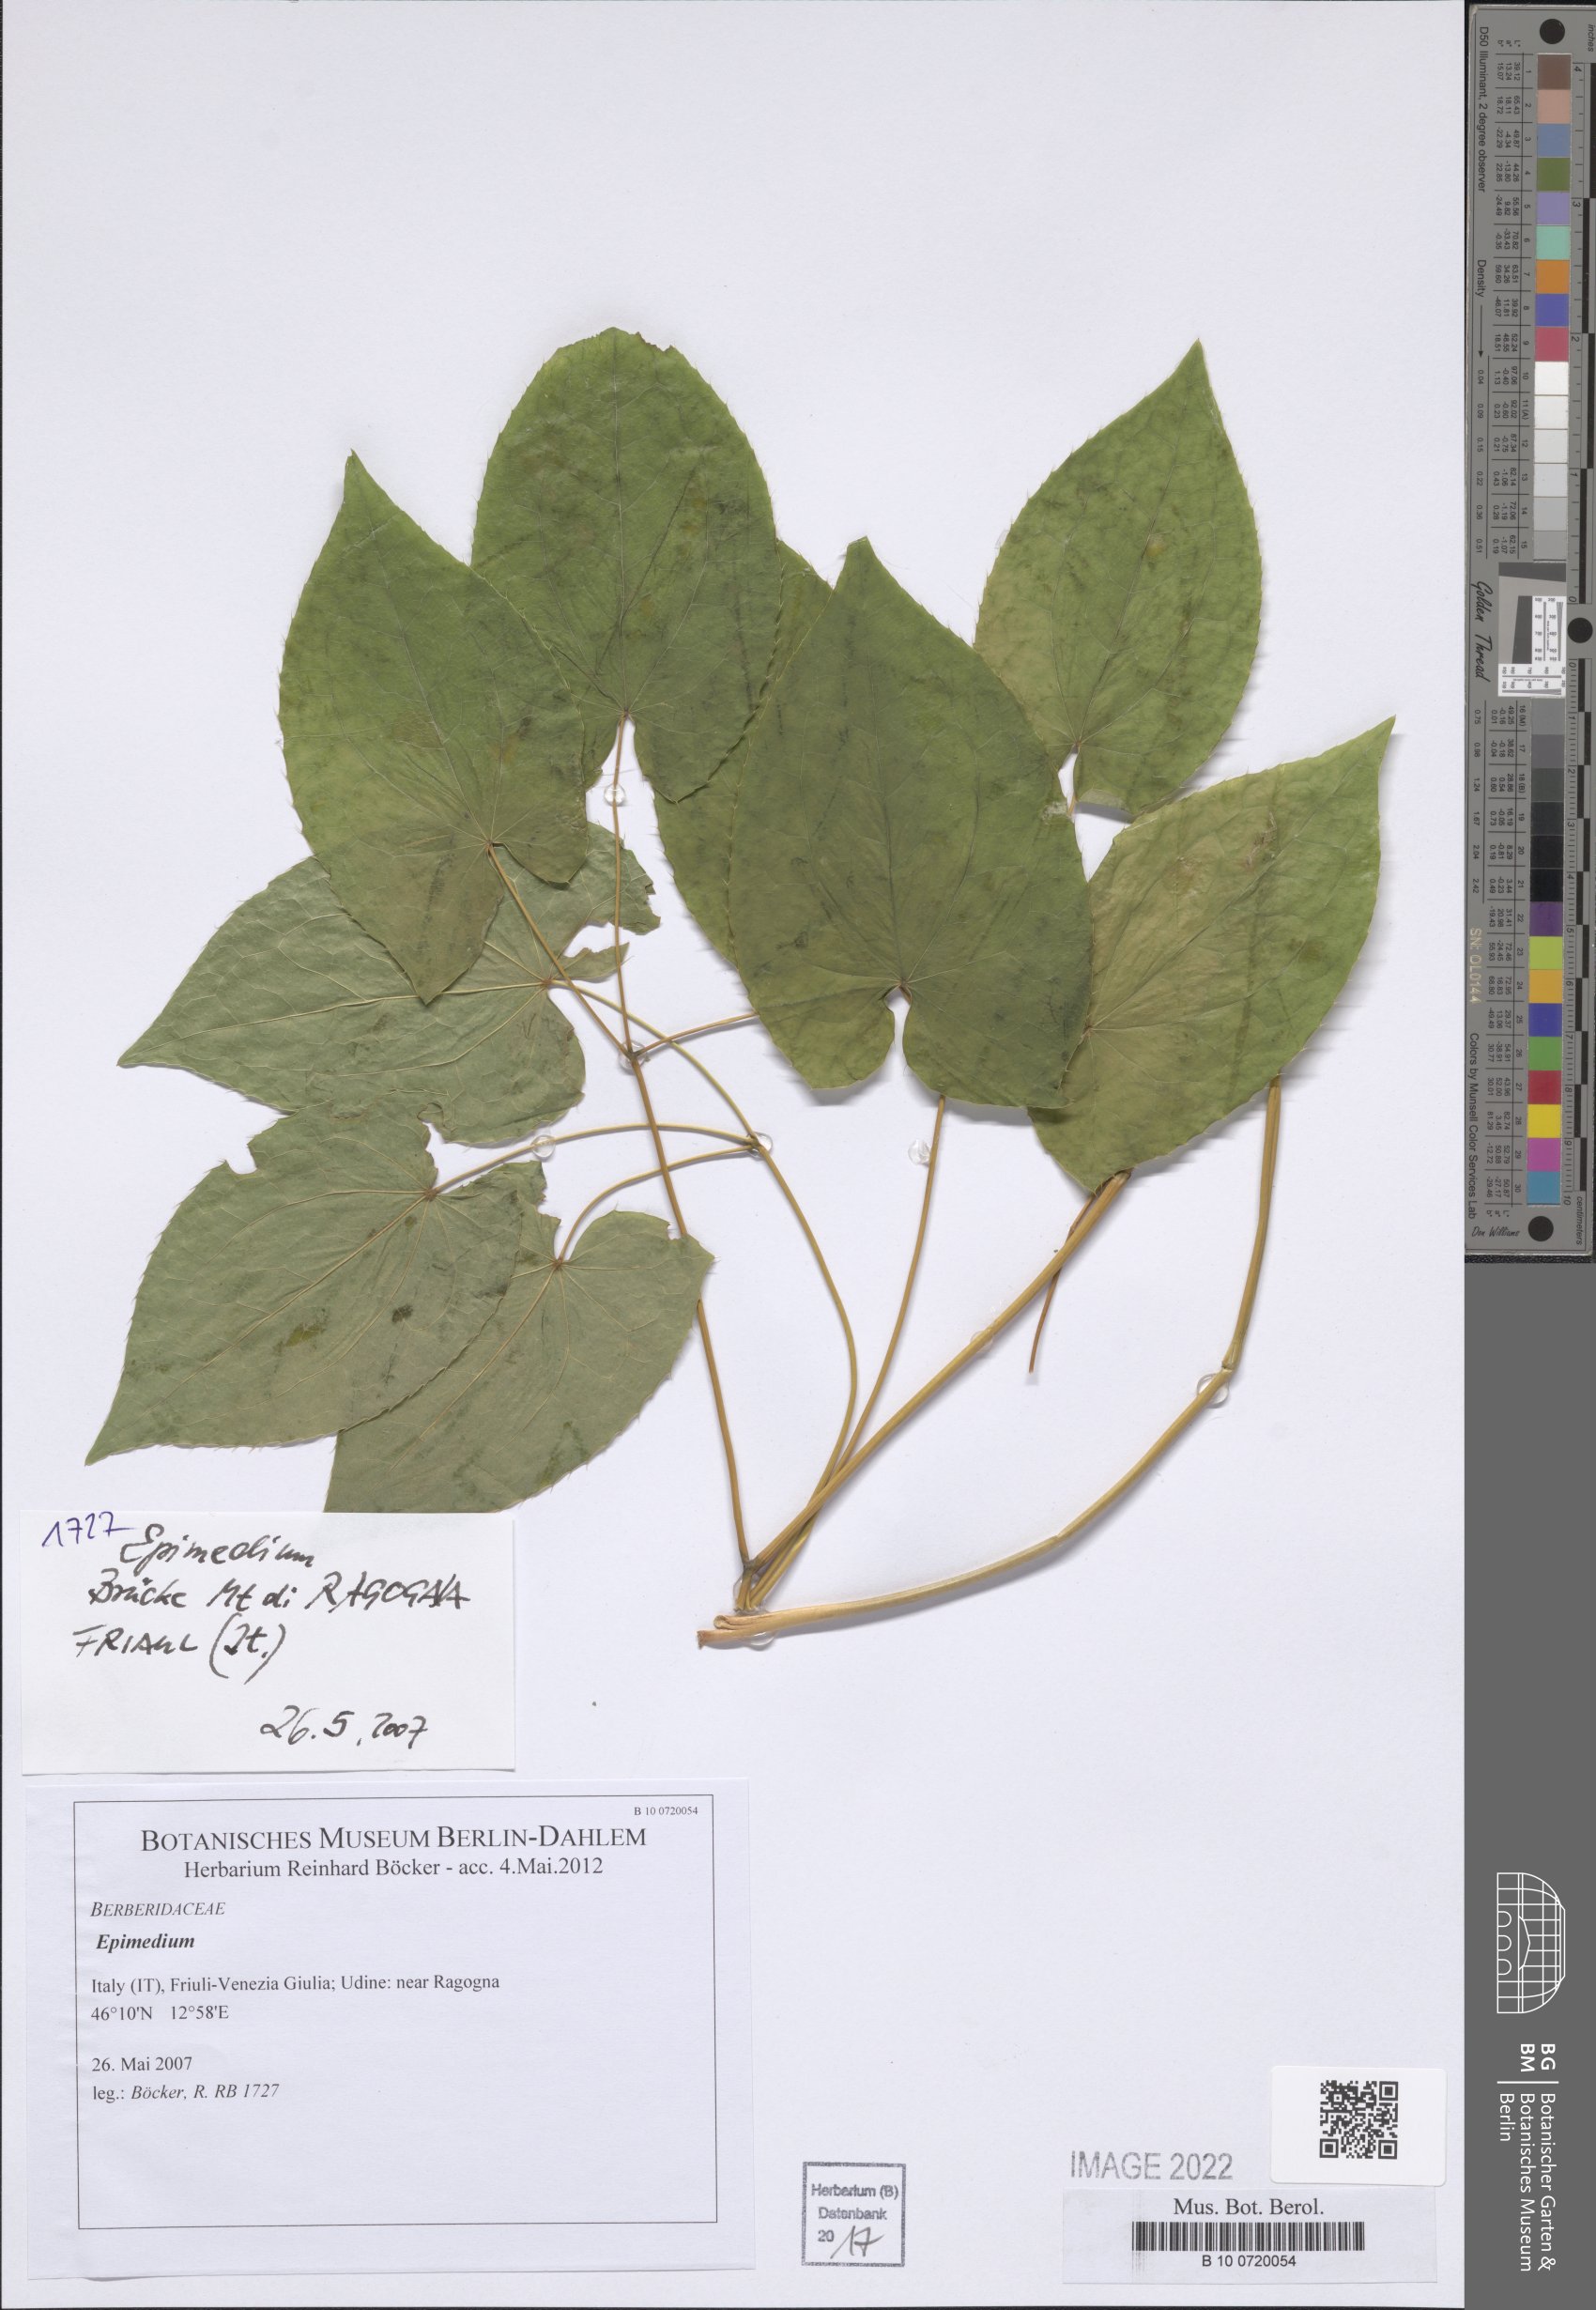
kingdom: Plantae
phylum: Tracheophyta
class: Magnoliopsida
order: Ranunculales
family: Berberidaceae
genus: Epimedium
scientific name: Epimedium
